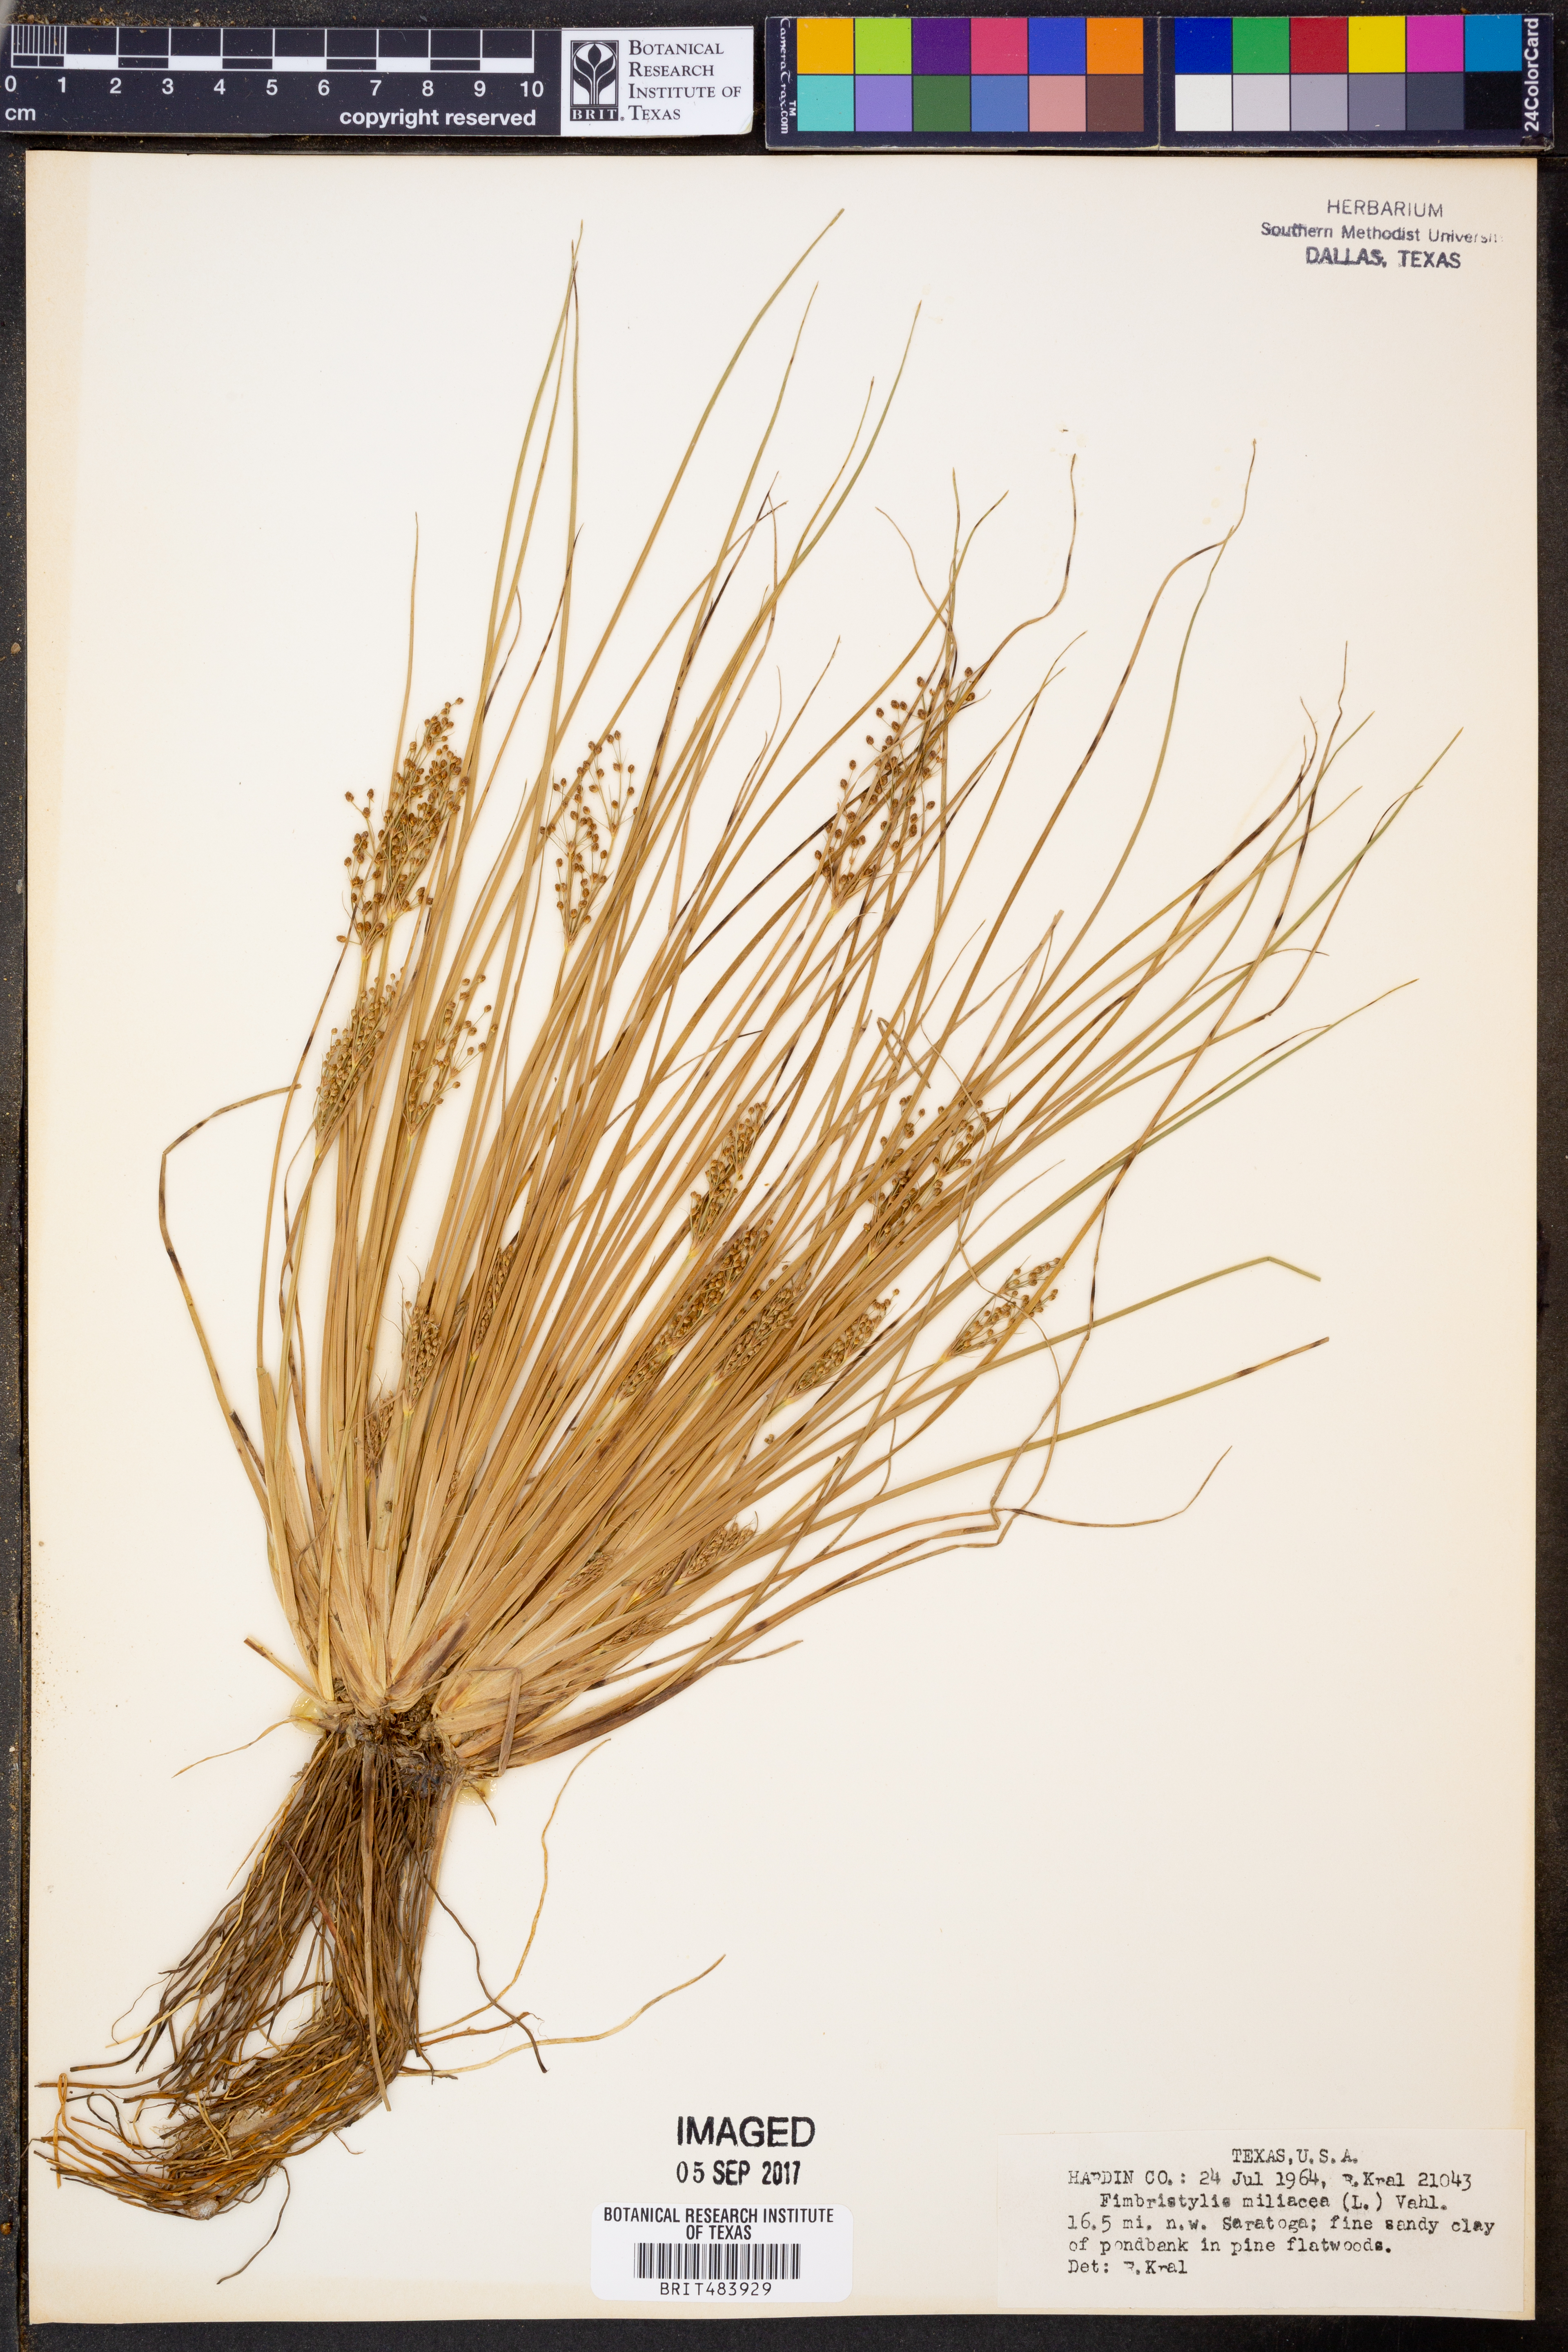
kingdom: Plantae
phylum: Tracheophyta
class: Liliopsida
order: Poales
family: Cyperaceae
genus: Fimbristylis
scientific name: Fimbristylis quinquangularis
